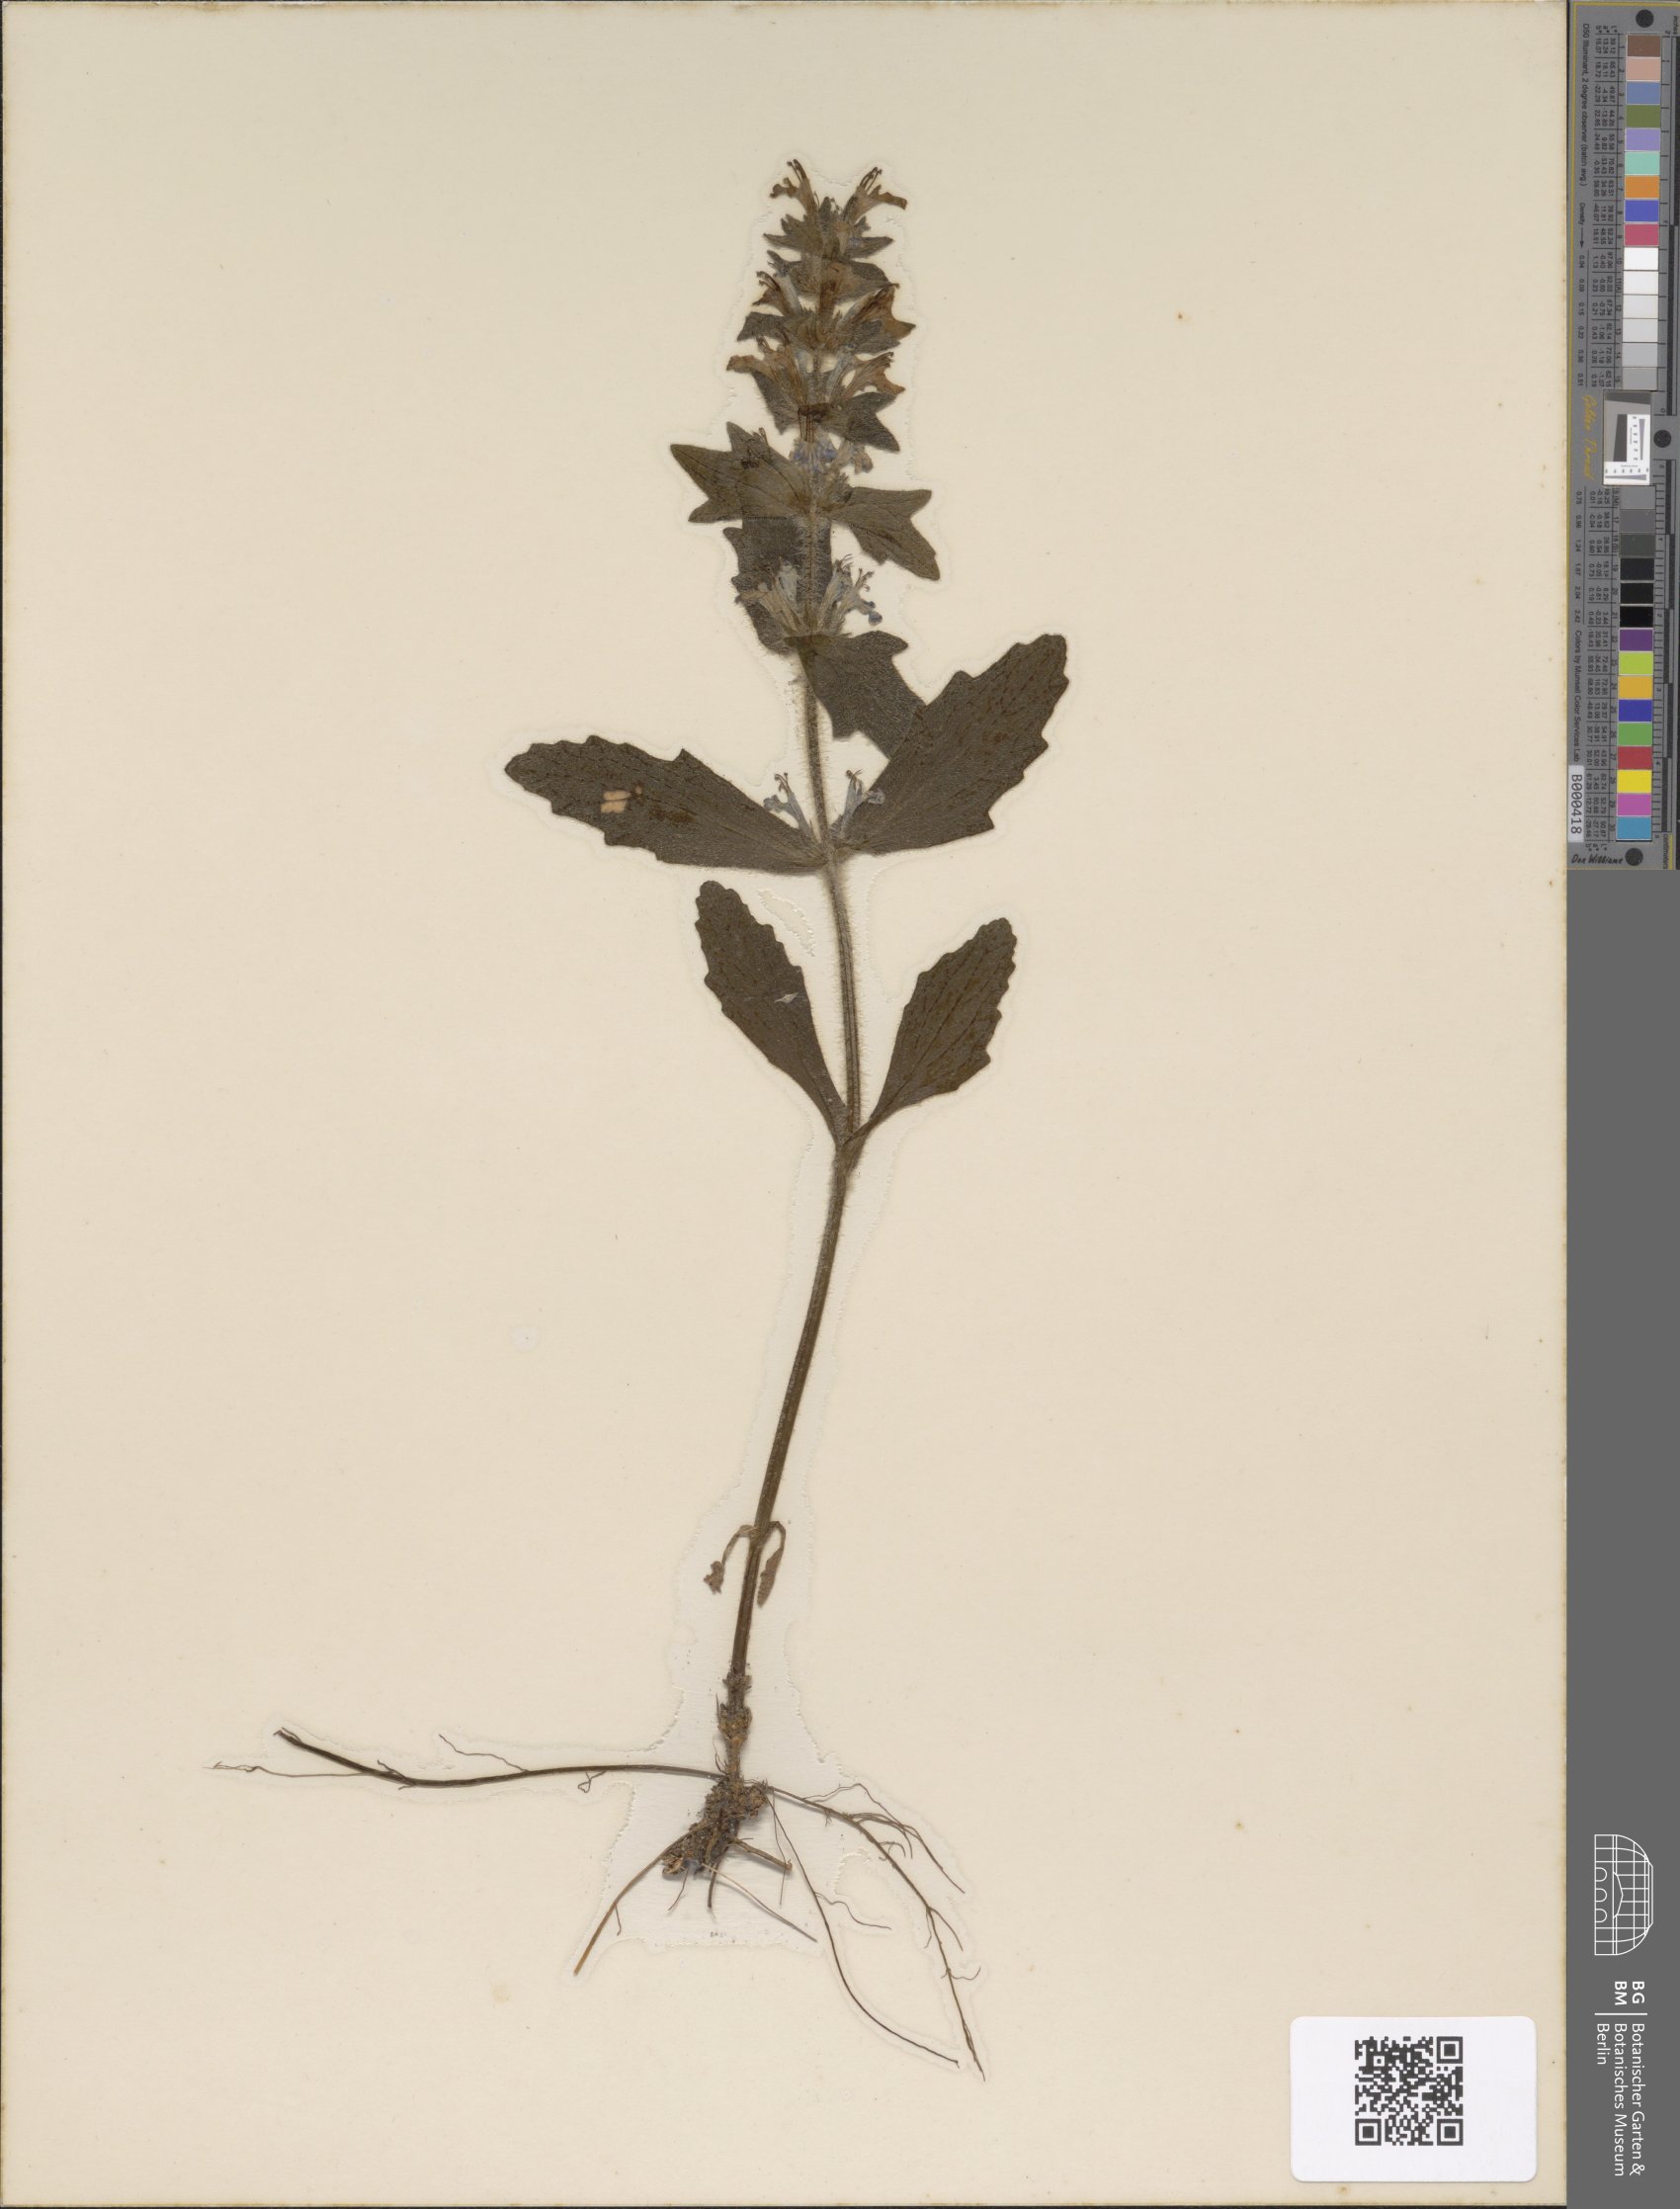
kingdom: Plantae
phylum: Tracheophyta
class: Magnoliopsida
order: Lamiales
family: Lamiaceae
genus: Ajuga
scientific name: Ajuga reptans
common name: Bugle
